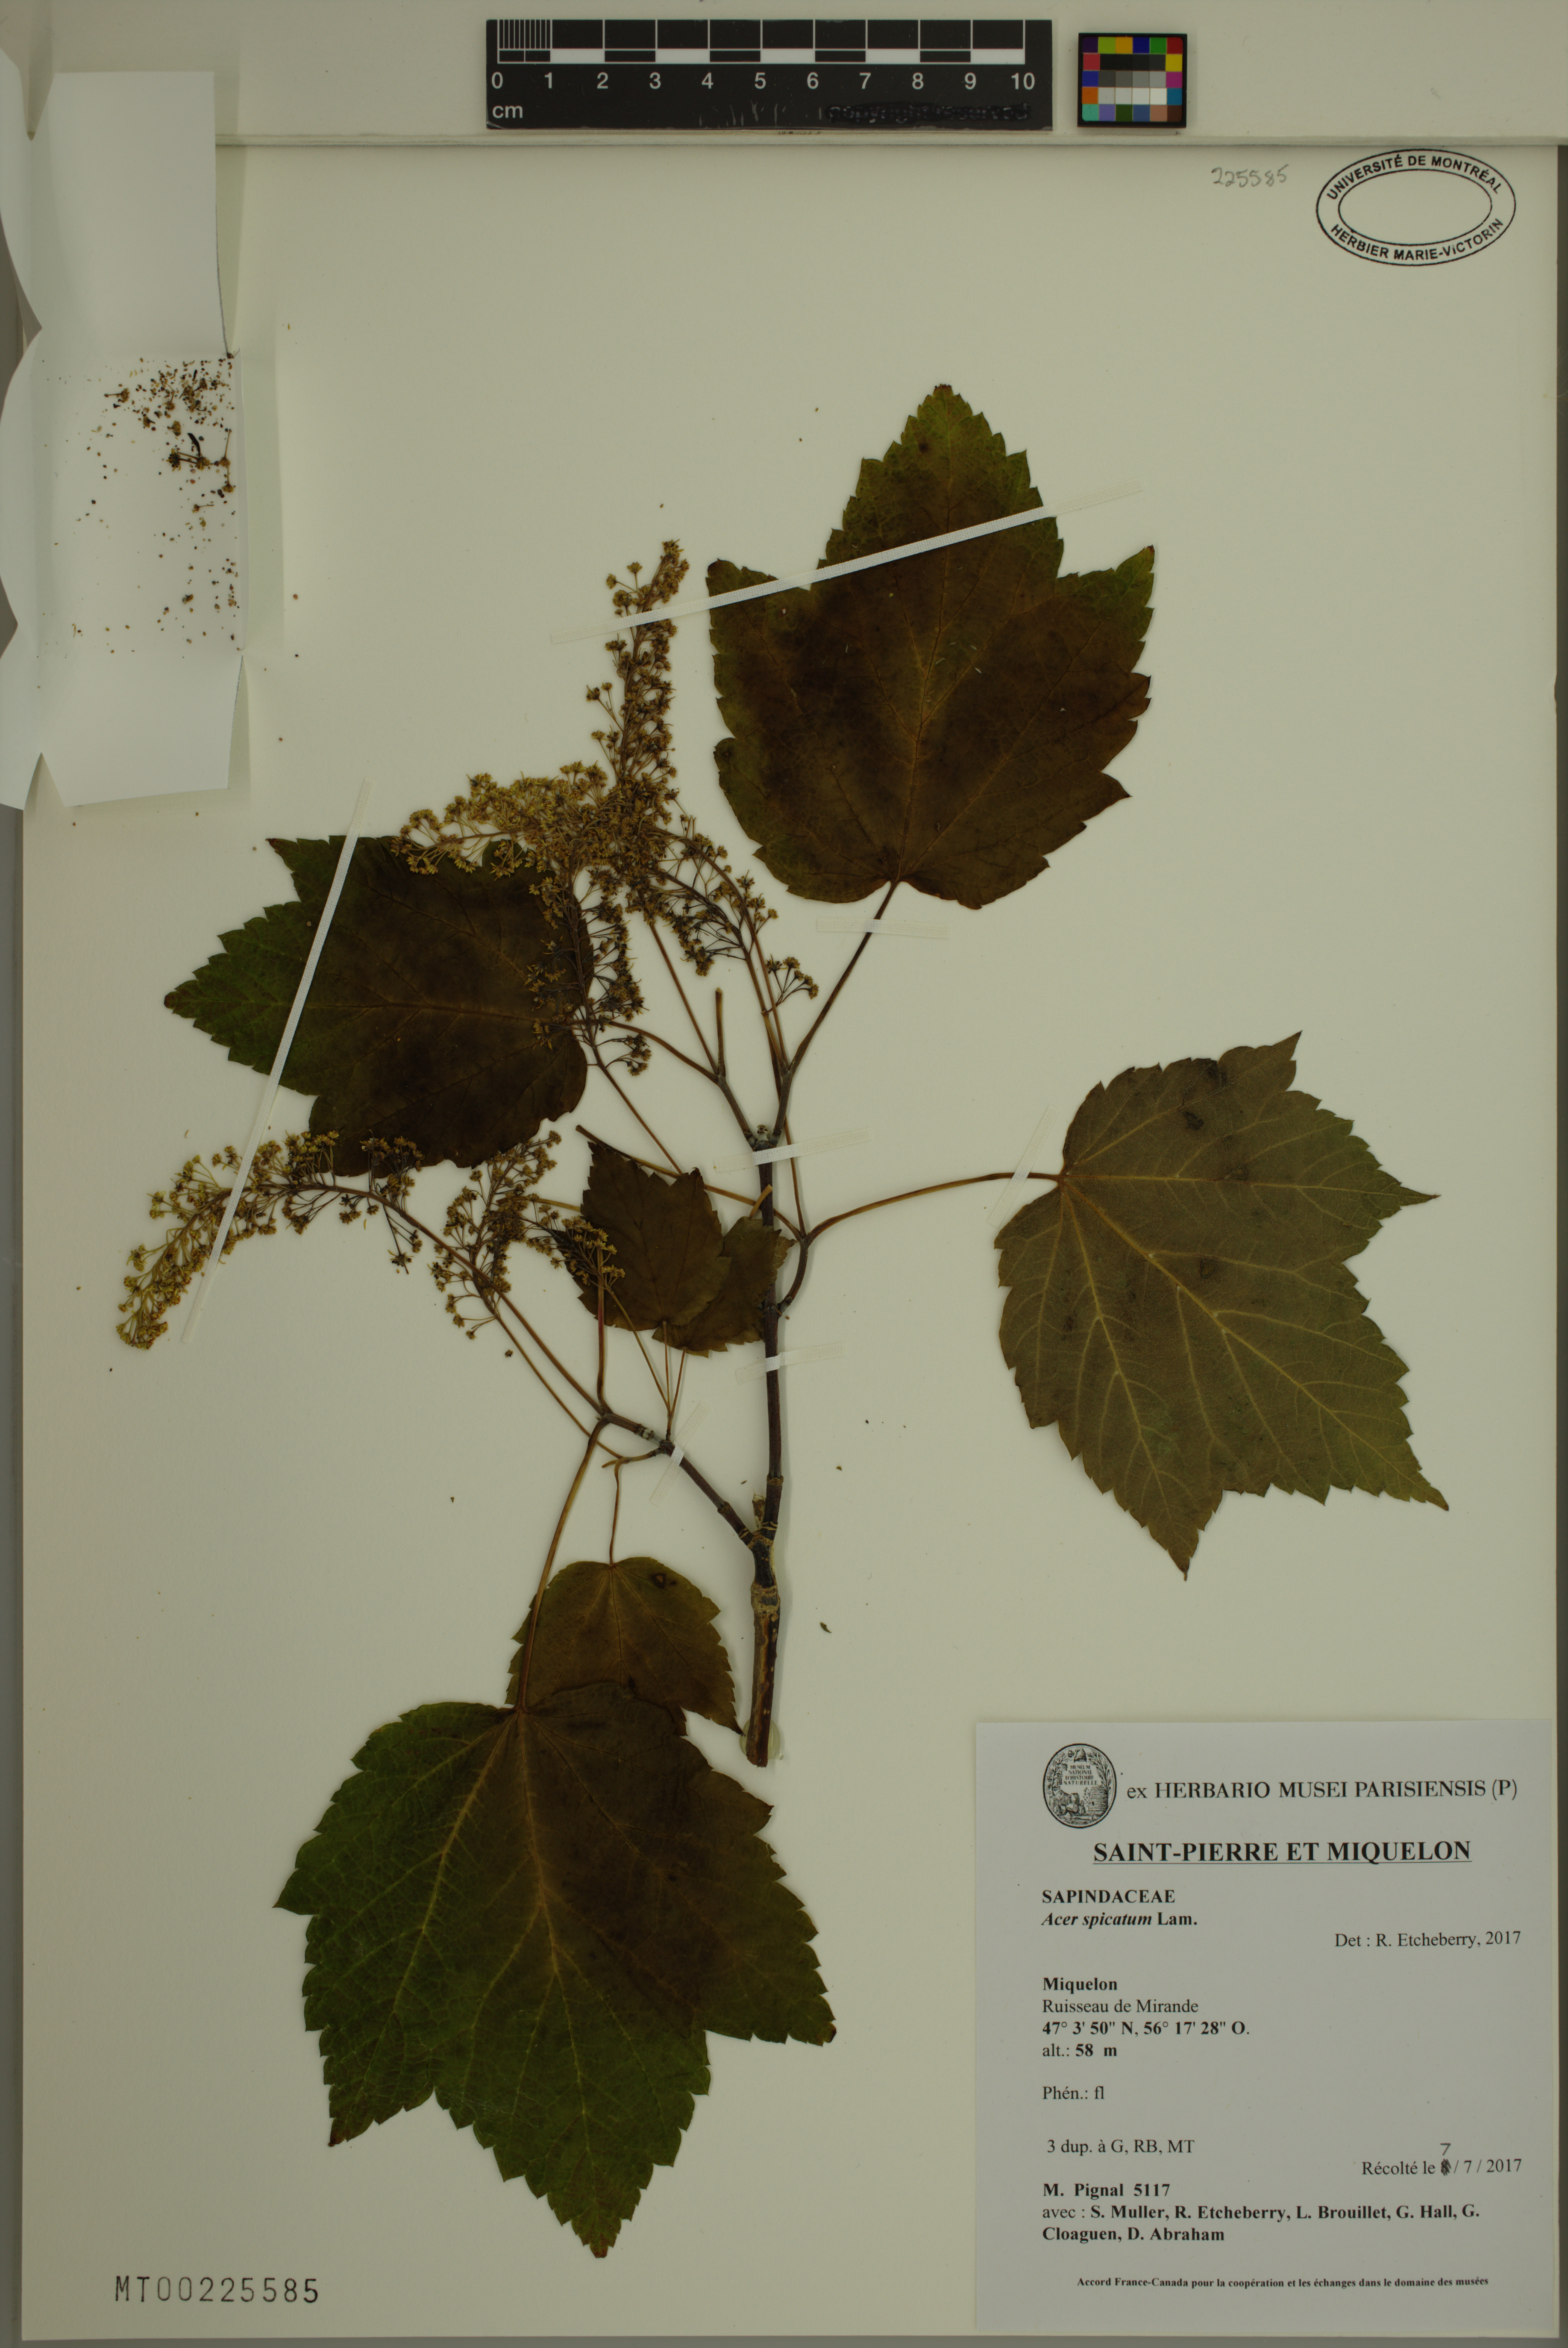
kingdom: Plantae
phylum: Tracheophyta
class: Magnoliopsida
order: Sapindales
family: Sapindaceae
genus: Acer
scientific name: Acer spicatum
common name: Mountain maple
